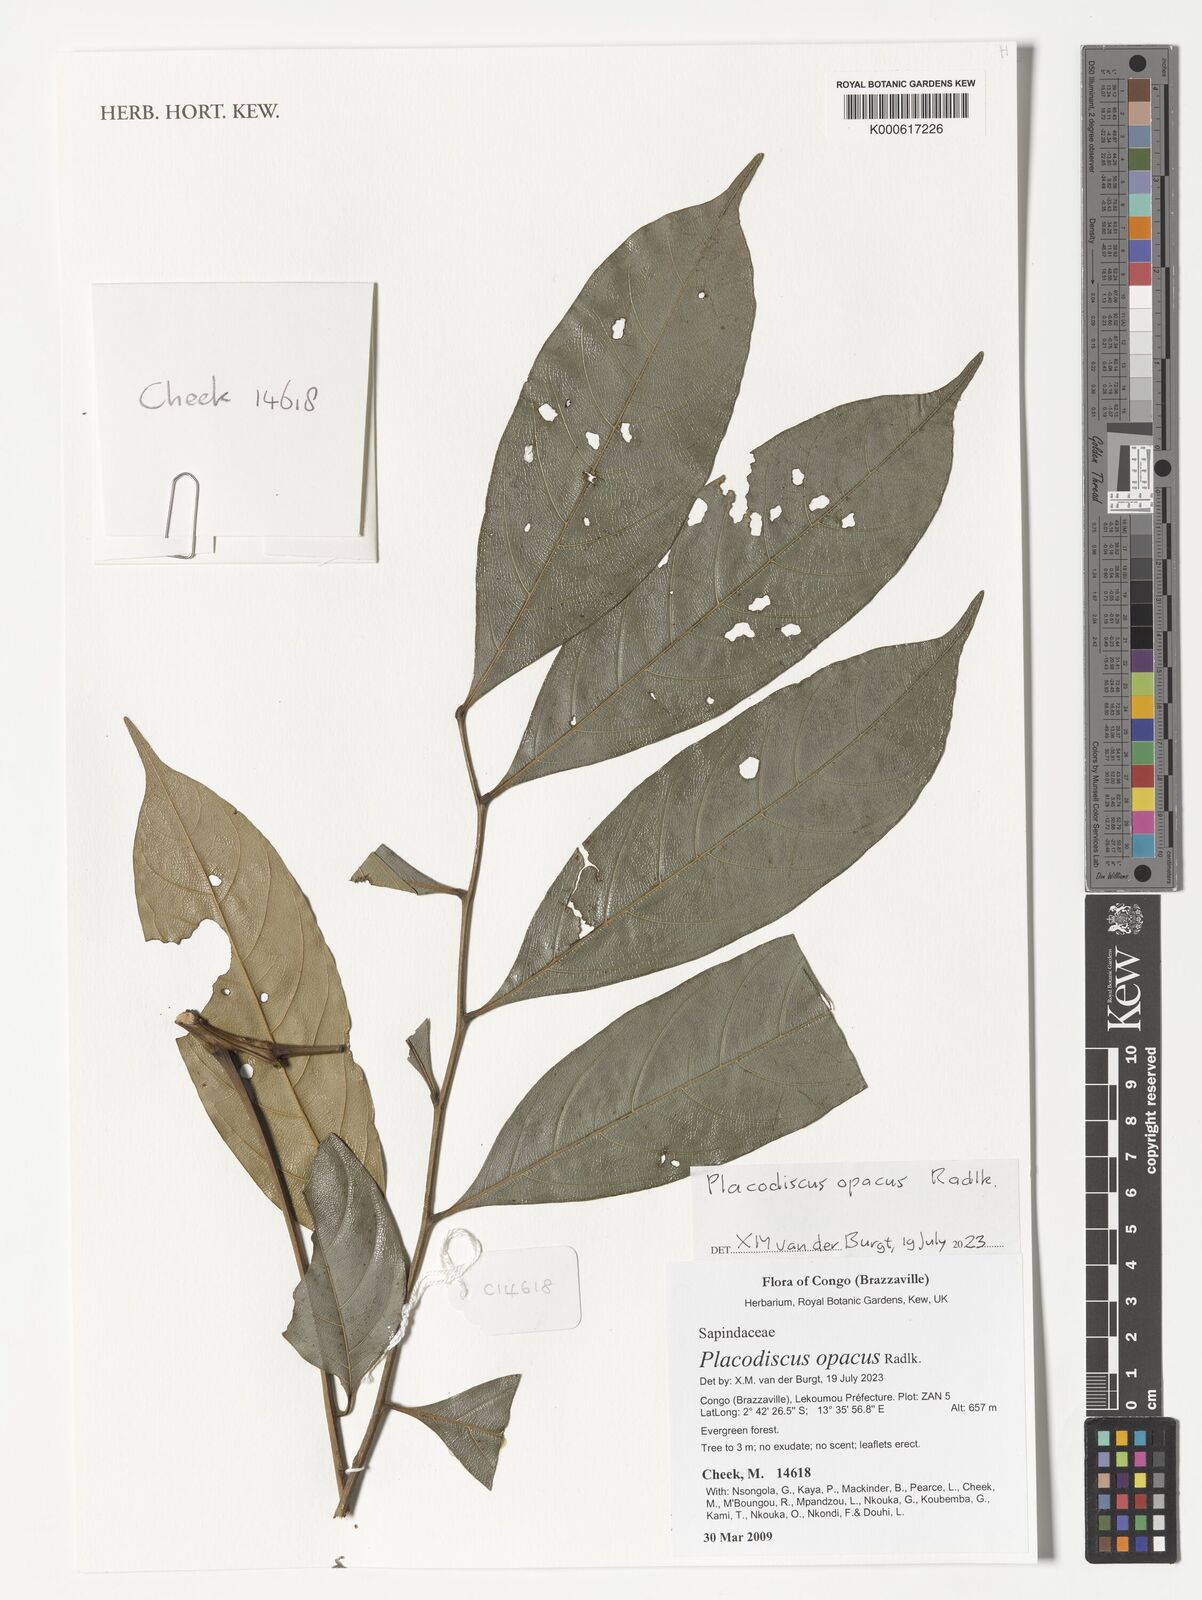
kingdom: Plantae
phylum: Tracheophyta
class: Magnoliopsida
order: Sapindales
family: Sapindaceae
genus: Placodiscus
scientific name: Placodiscus opacus
